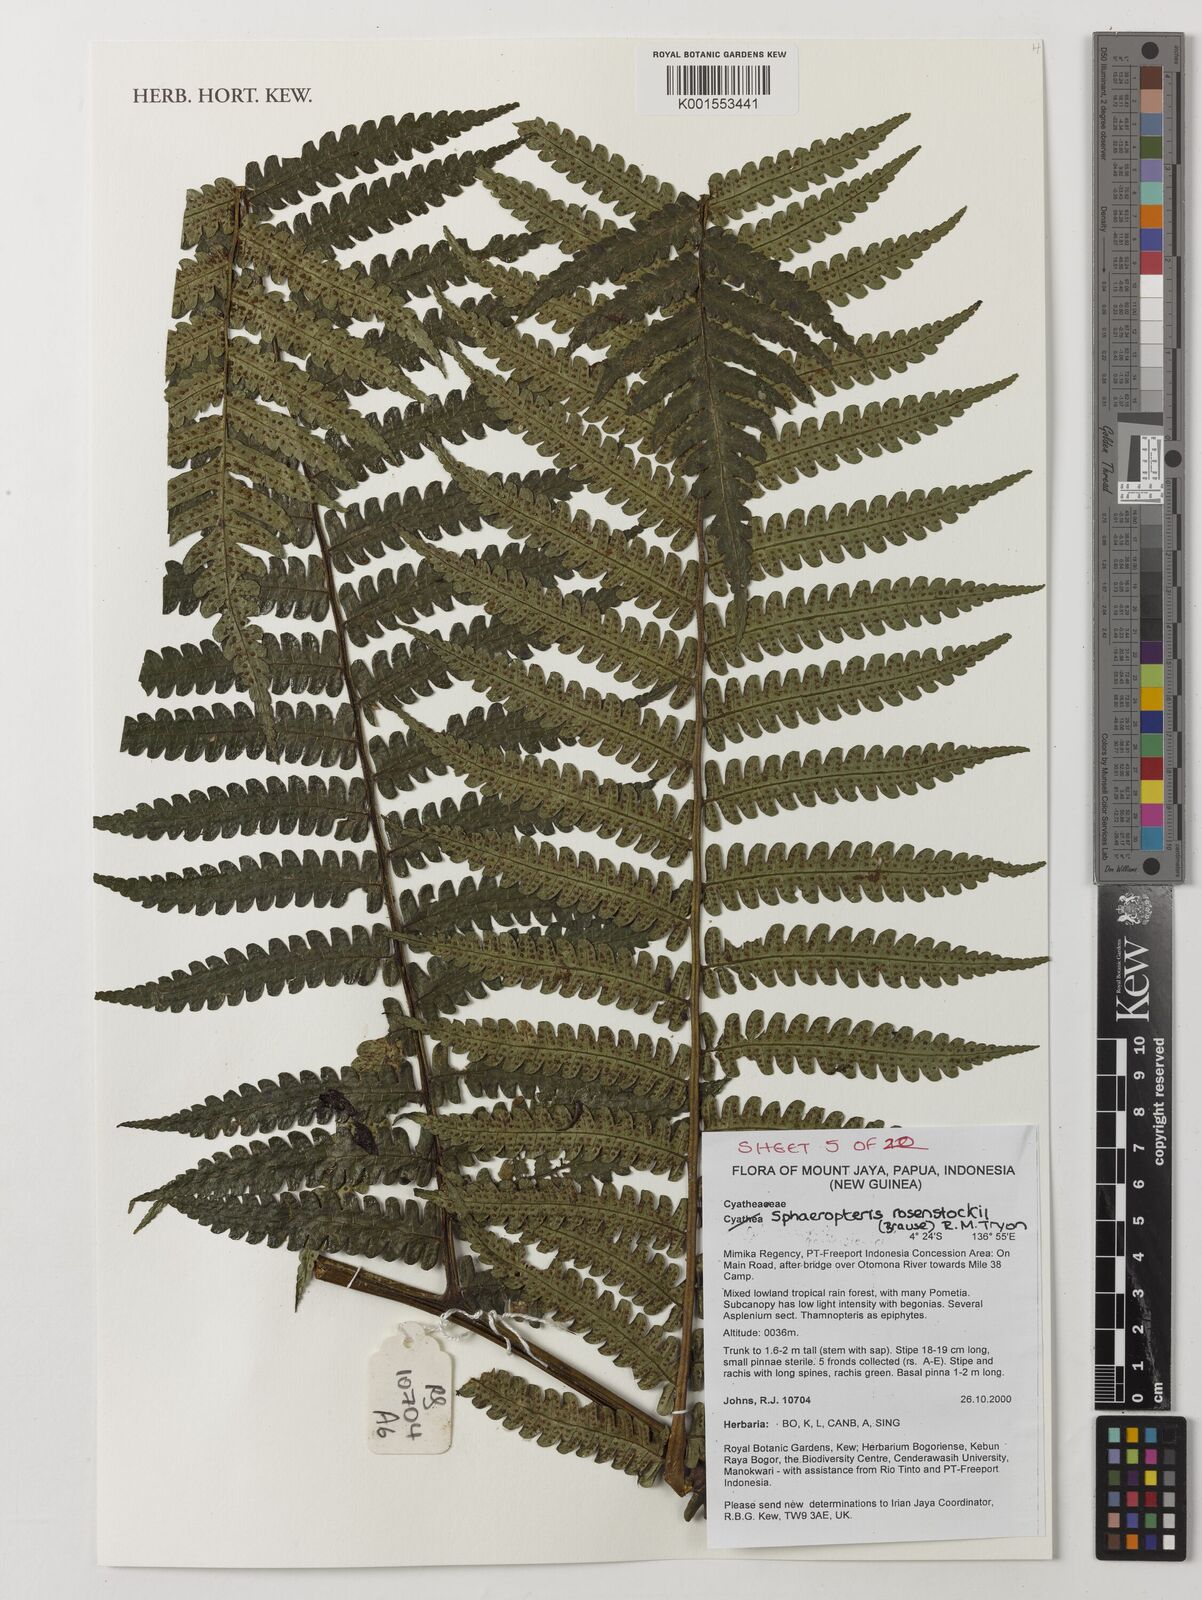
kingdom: Plantae
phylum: Tracheophyta
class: Polypodiopsida
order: Cyatheales
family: Cyatheaceae
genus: Sphaeropteris
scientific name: Sphaeropteris rosenstockii
